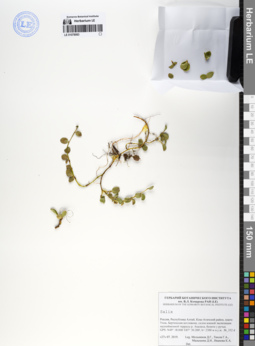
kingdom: Plantae
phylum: Tracheophyta
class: Magnoliopsida
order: Malpighiales
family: Salicaceae
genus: Salix
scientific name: Salix
